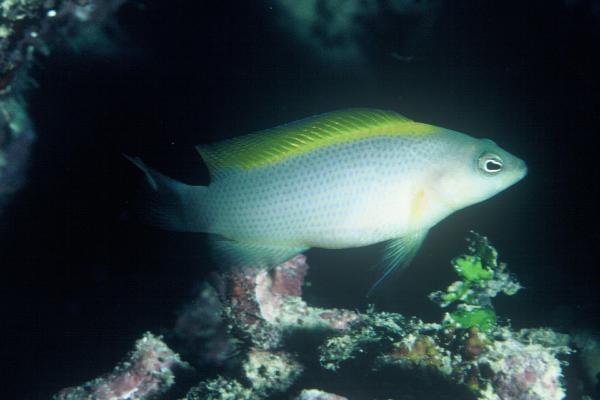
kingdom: Animalia
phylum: Chordata
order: Perciformes
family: Pseudochromidae
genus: Pseudochromis
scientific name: Pseudochromis fuscus
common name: Brown dottyback
